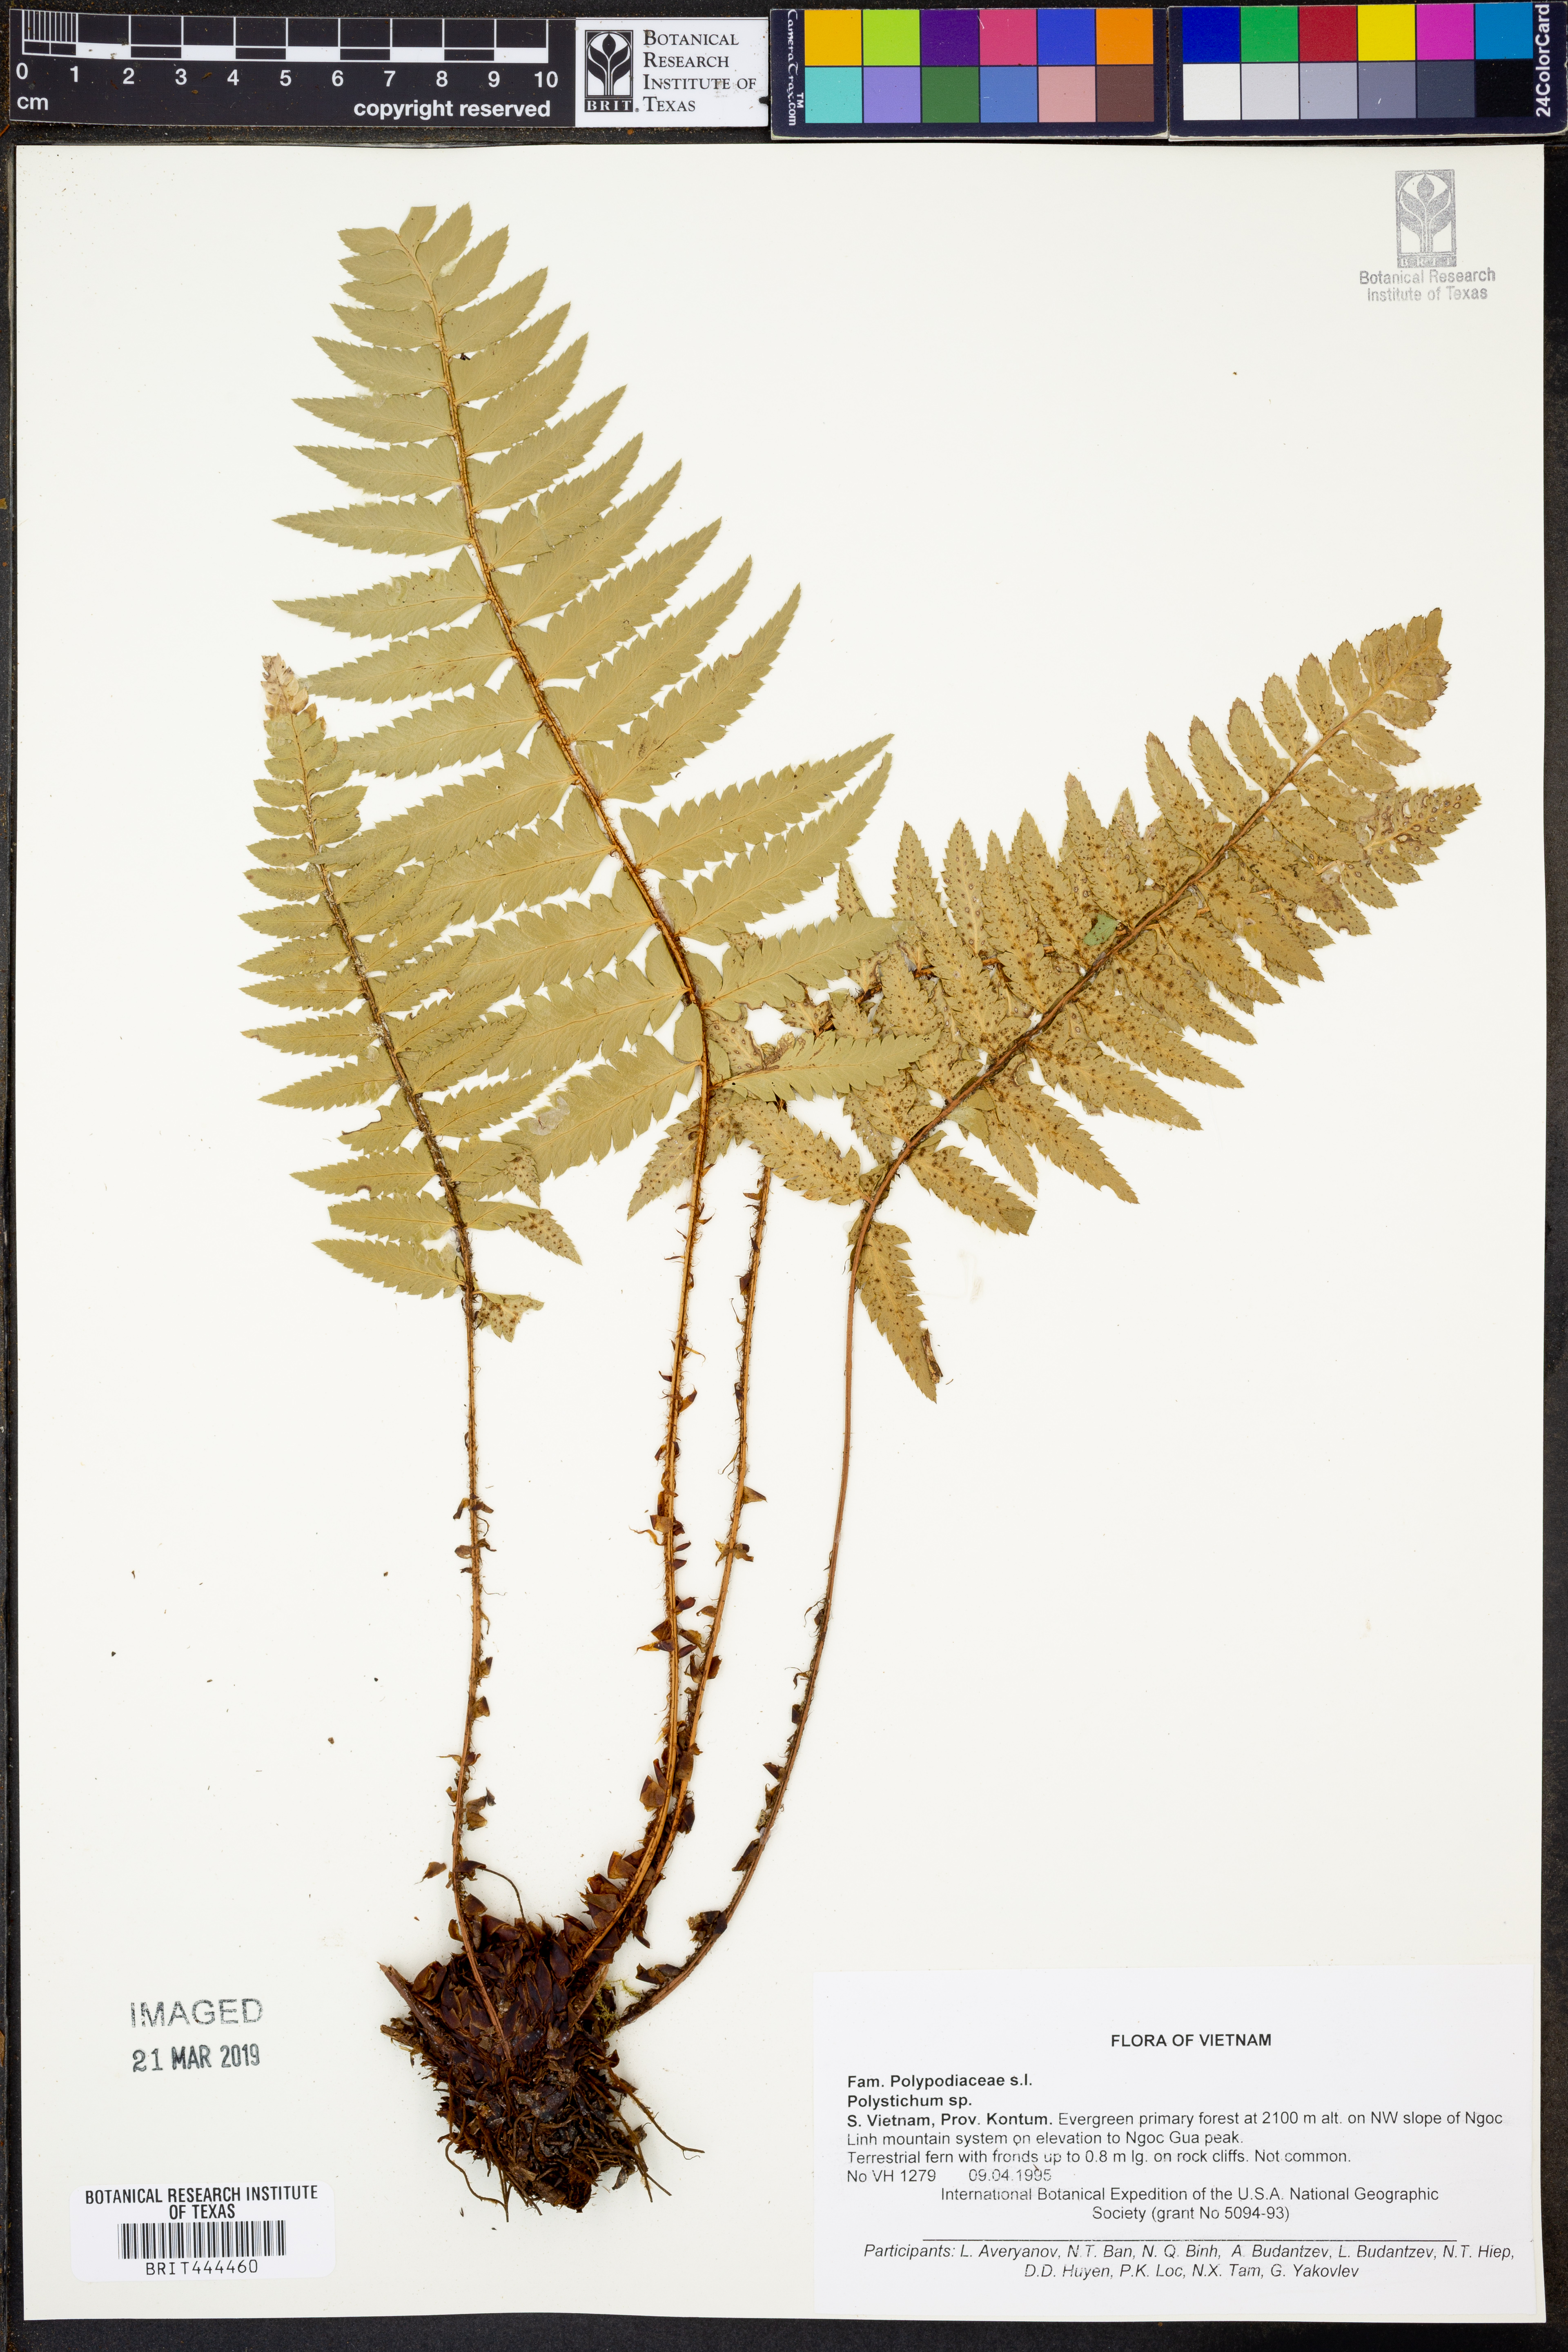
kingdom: Plantae
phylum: Tracheophyta
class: Polypodiopsida
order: Polypodiales
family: Dryopteridaceae
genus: Polystichum
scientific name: Polystichum
